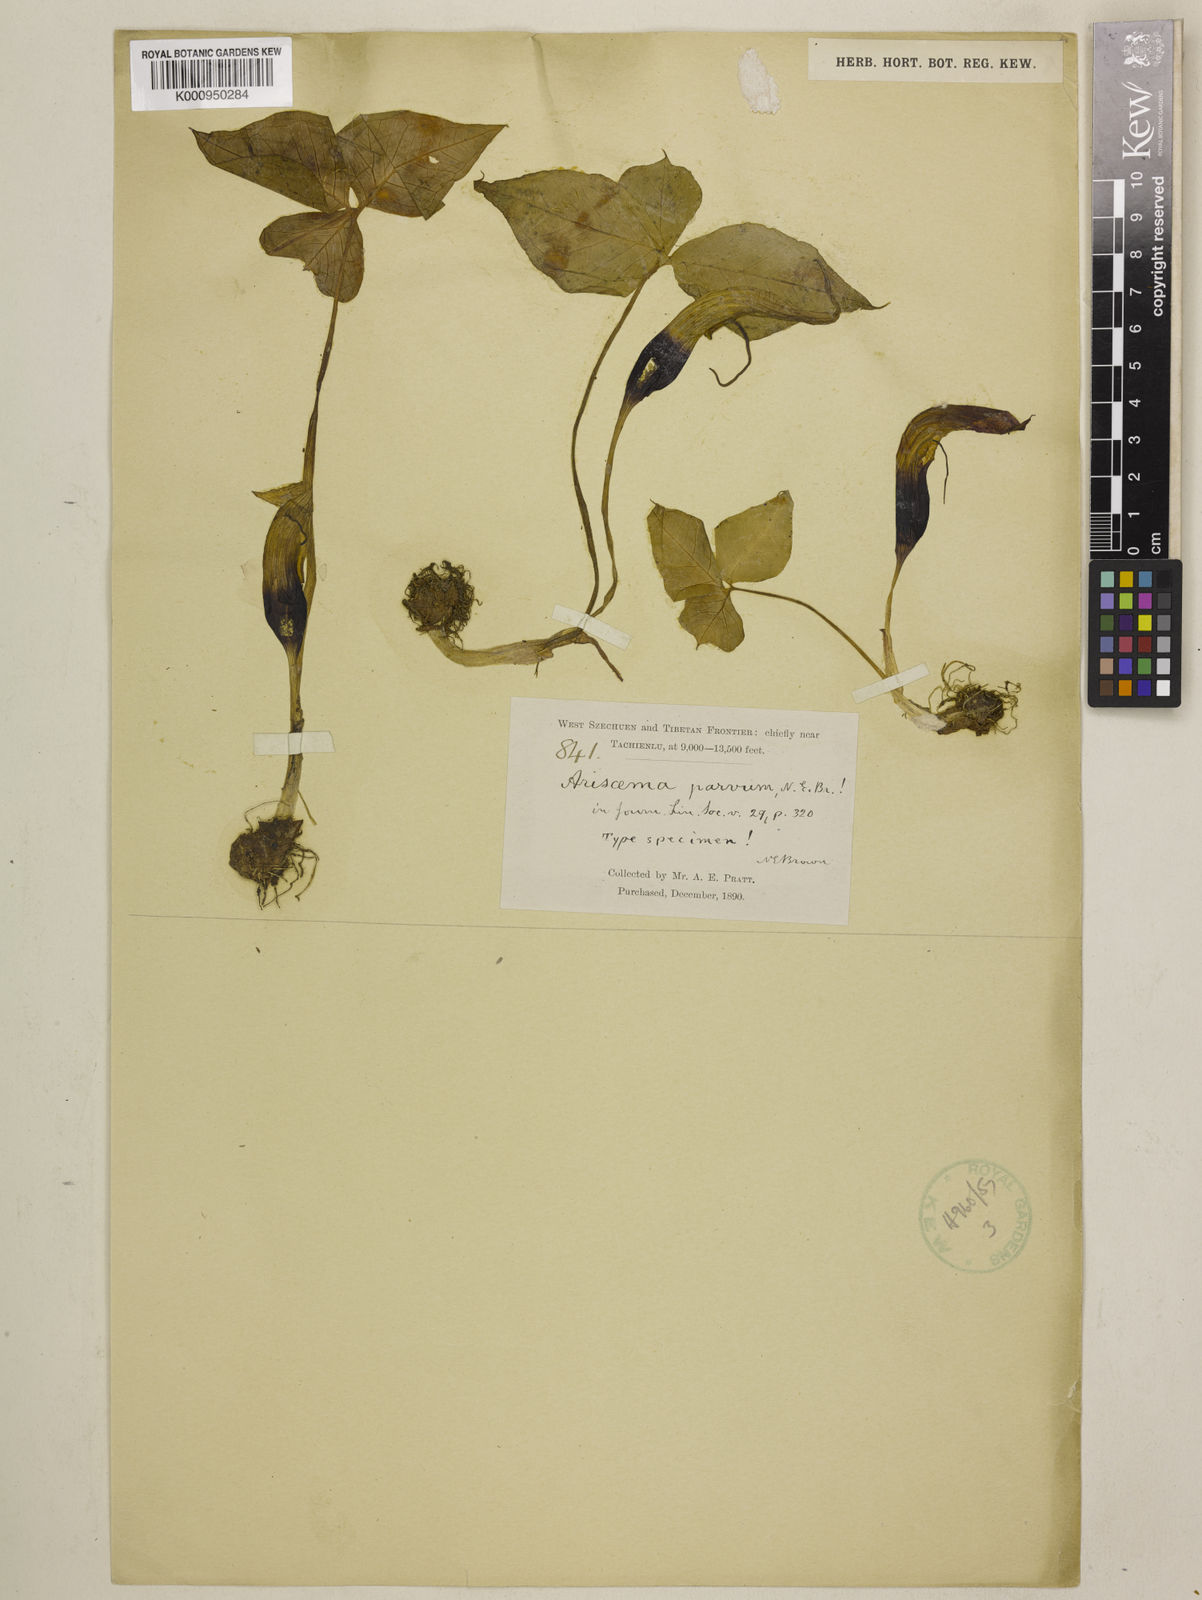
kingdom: Plantae
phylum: Tracheophyta
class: Liliopsida
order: Alismatales
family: Araceae
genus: Arisaema
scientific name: Arisaema parvum
